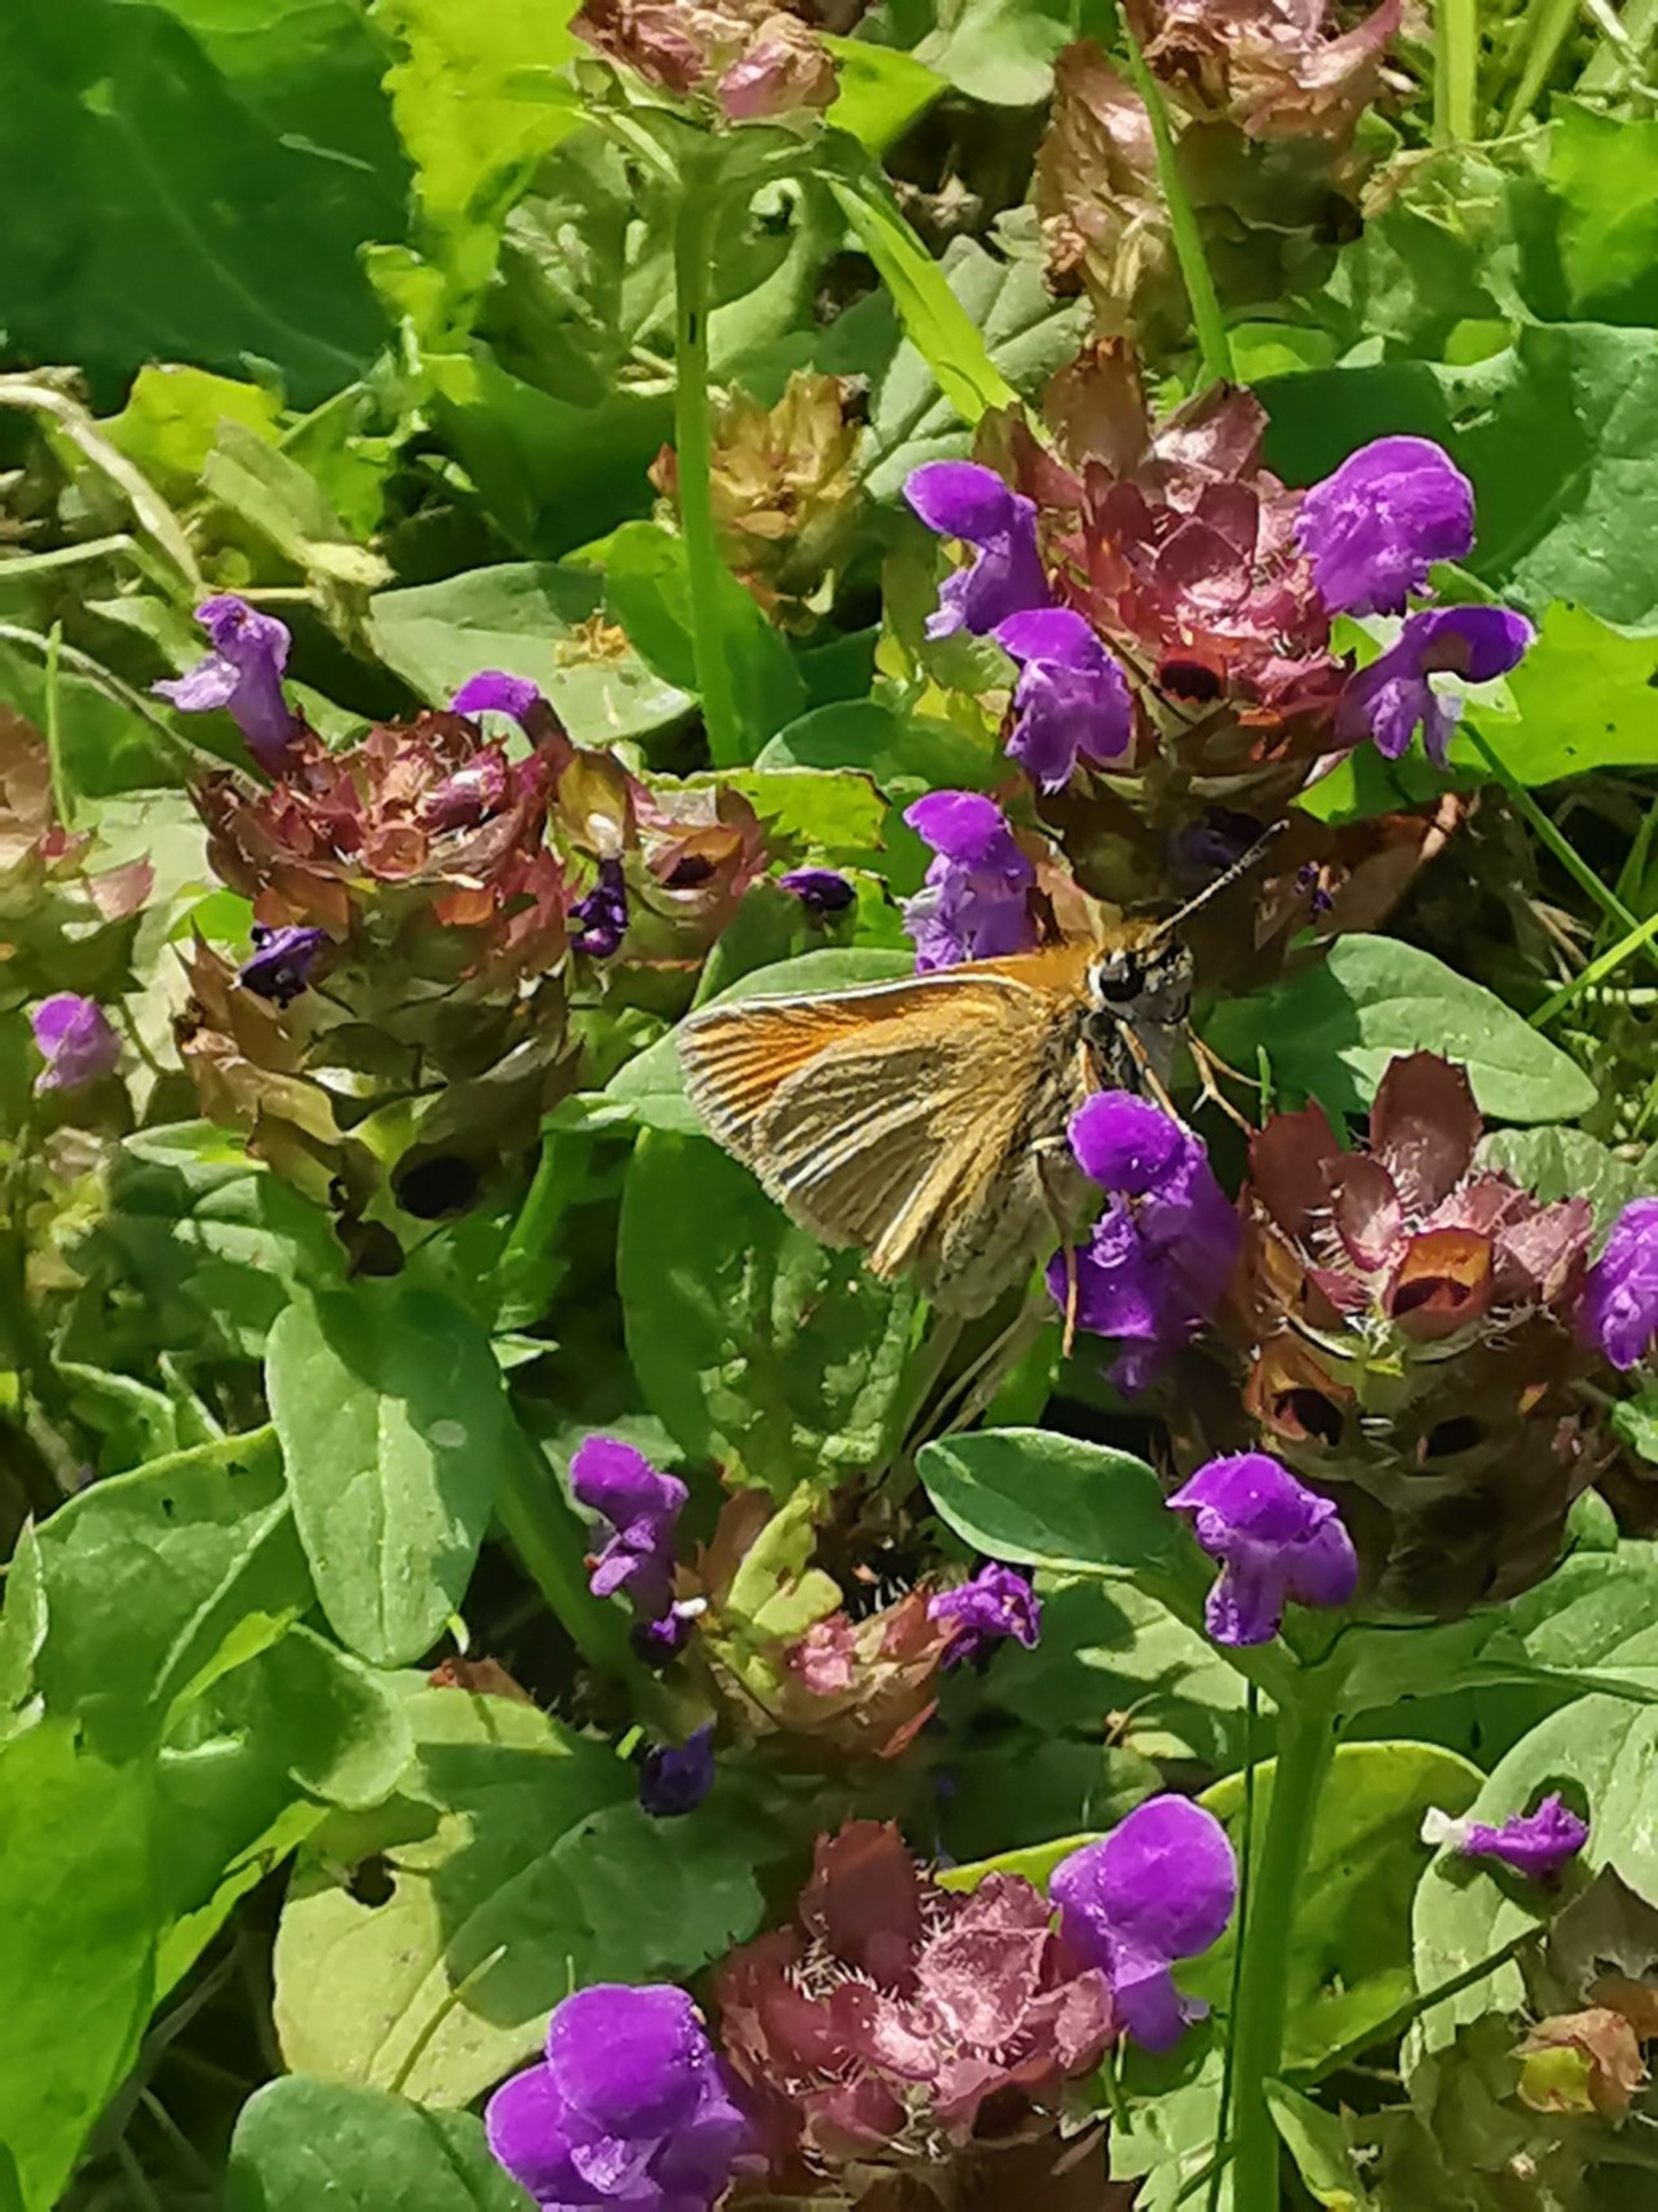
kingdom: Plantae
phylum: Tracheophyta
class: Magnoliopsida
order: Lamiales
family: Lamiaceae
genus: Prunella
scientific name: Prunella vulgaris
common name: Almindelig brunelle
